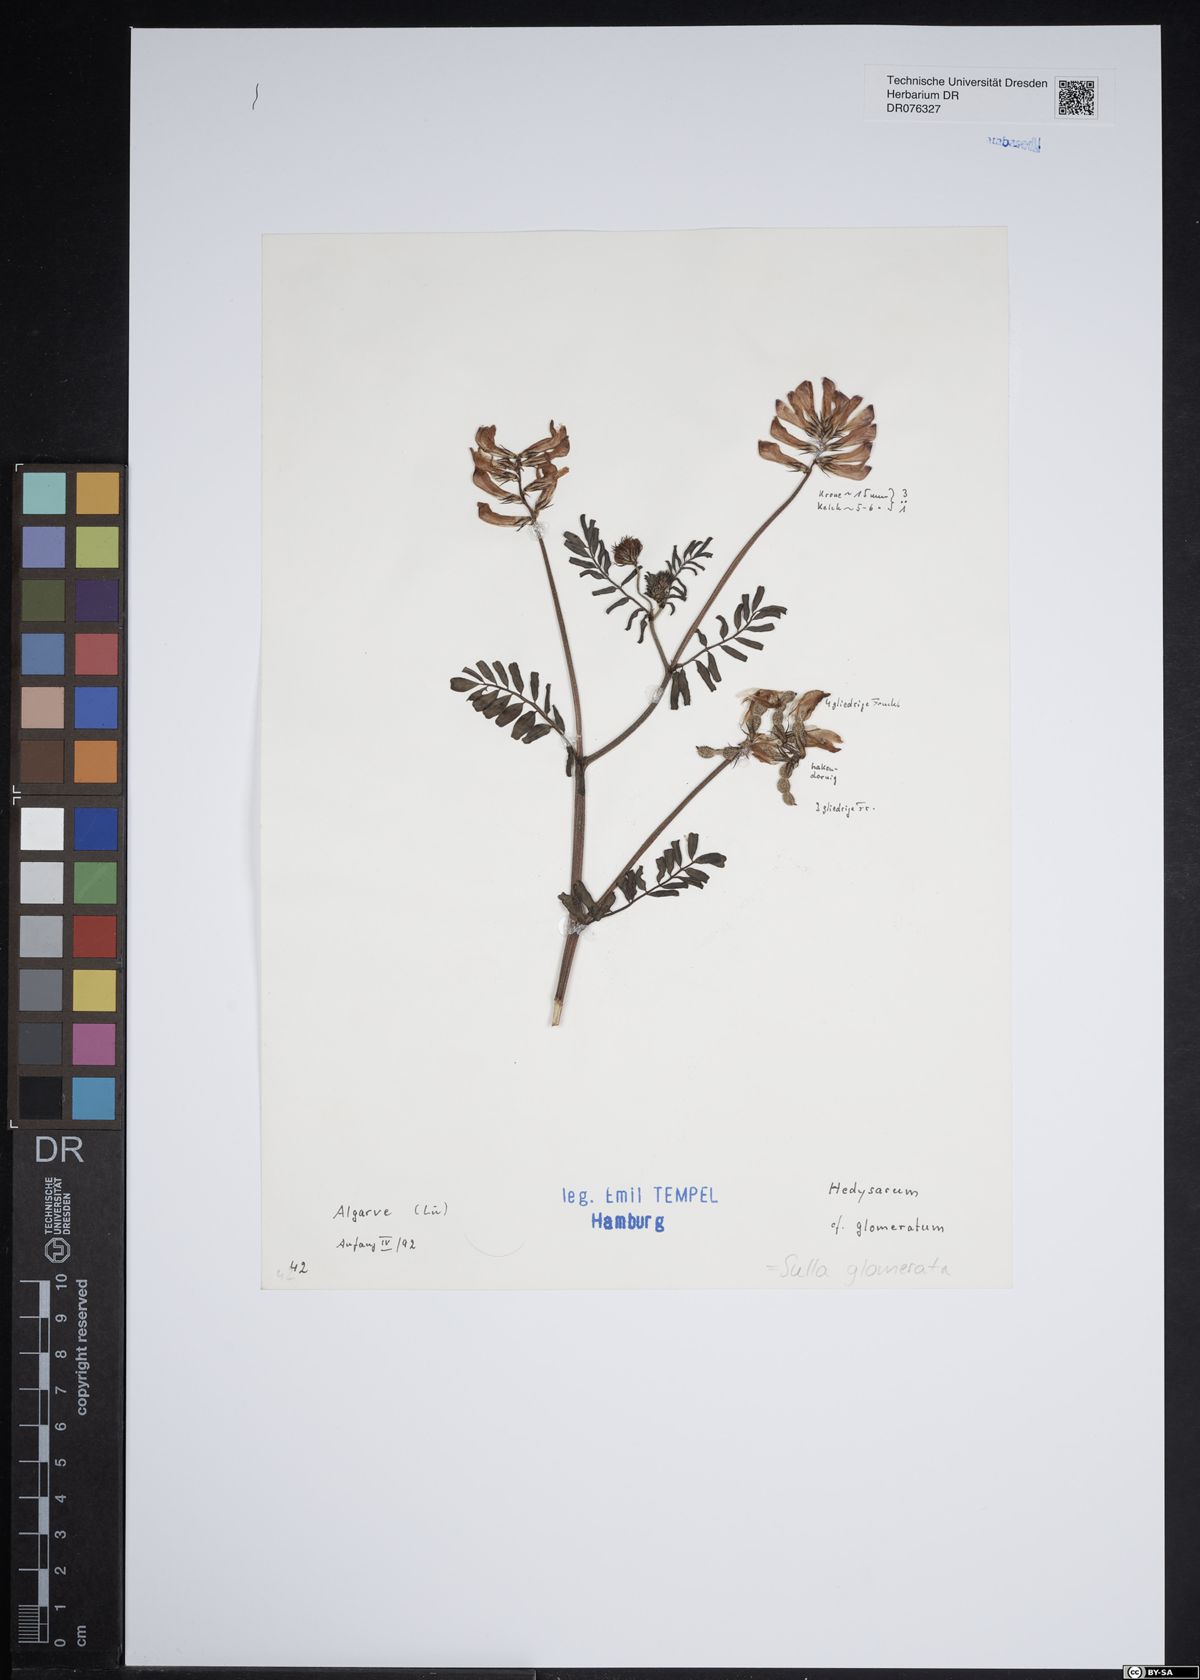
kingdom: Plantae
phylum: Tracheophyta
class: Magnoliopsida
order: Fabales
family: Fabaceae
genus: Sulla
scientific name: Sulla glomerata
